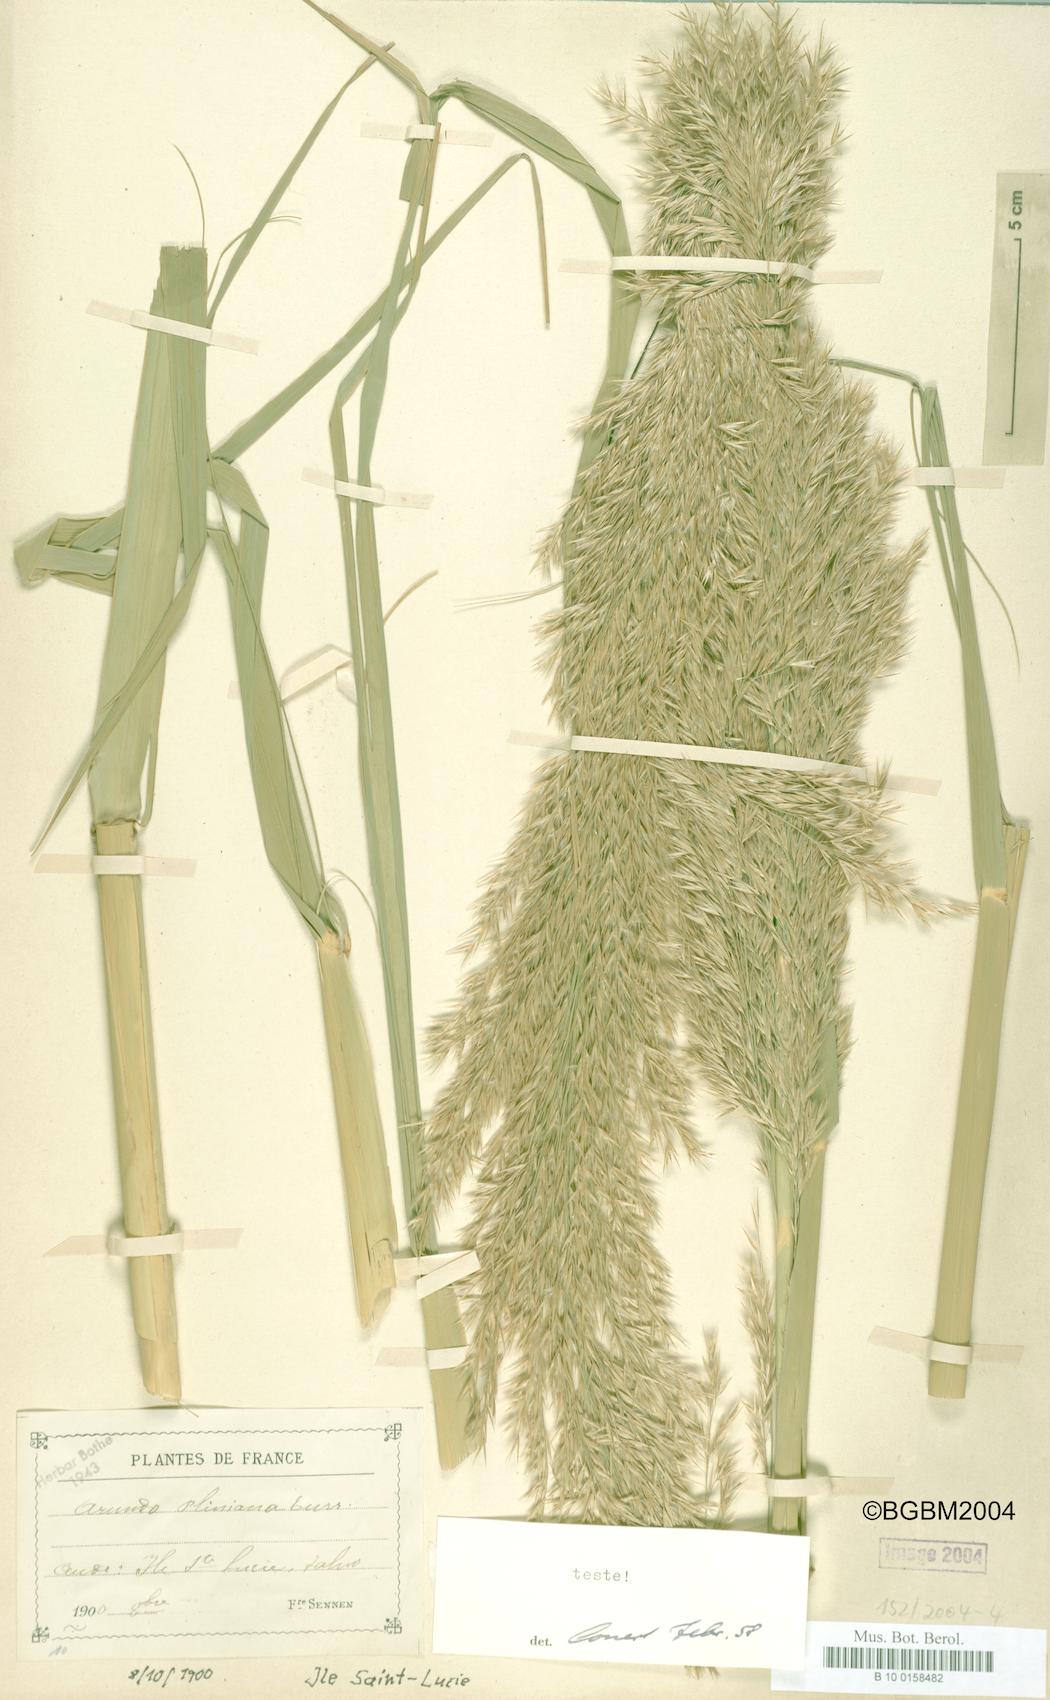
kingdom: Plantae
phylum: Tracheophyta
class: Liliopsida
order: Poales
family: Poaceae
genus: Arundo
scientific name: Arundo plinii
